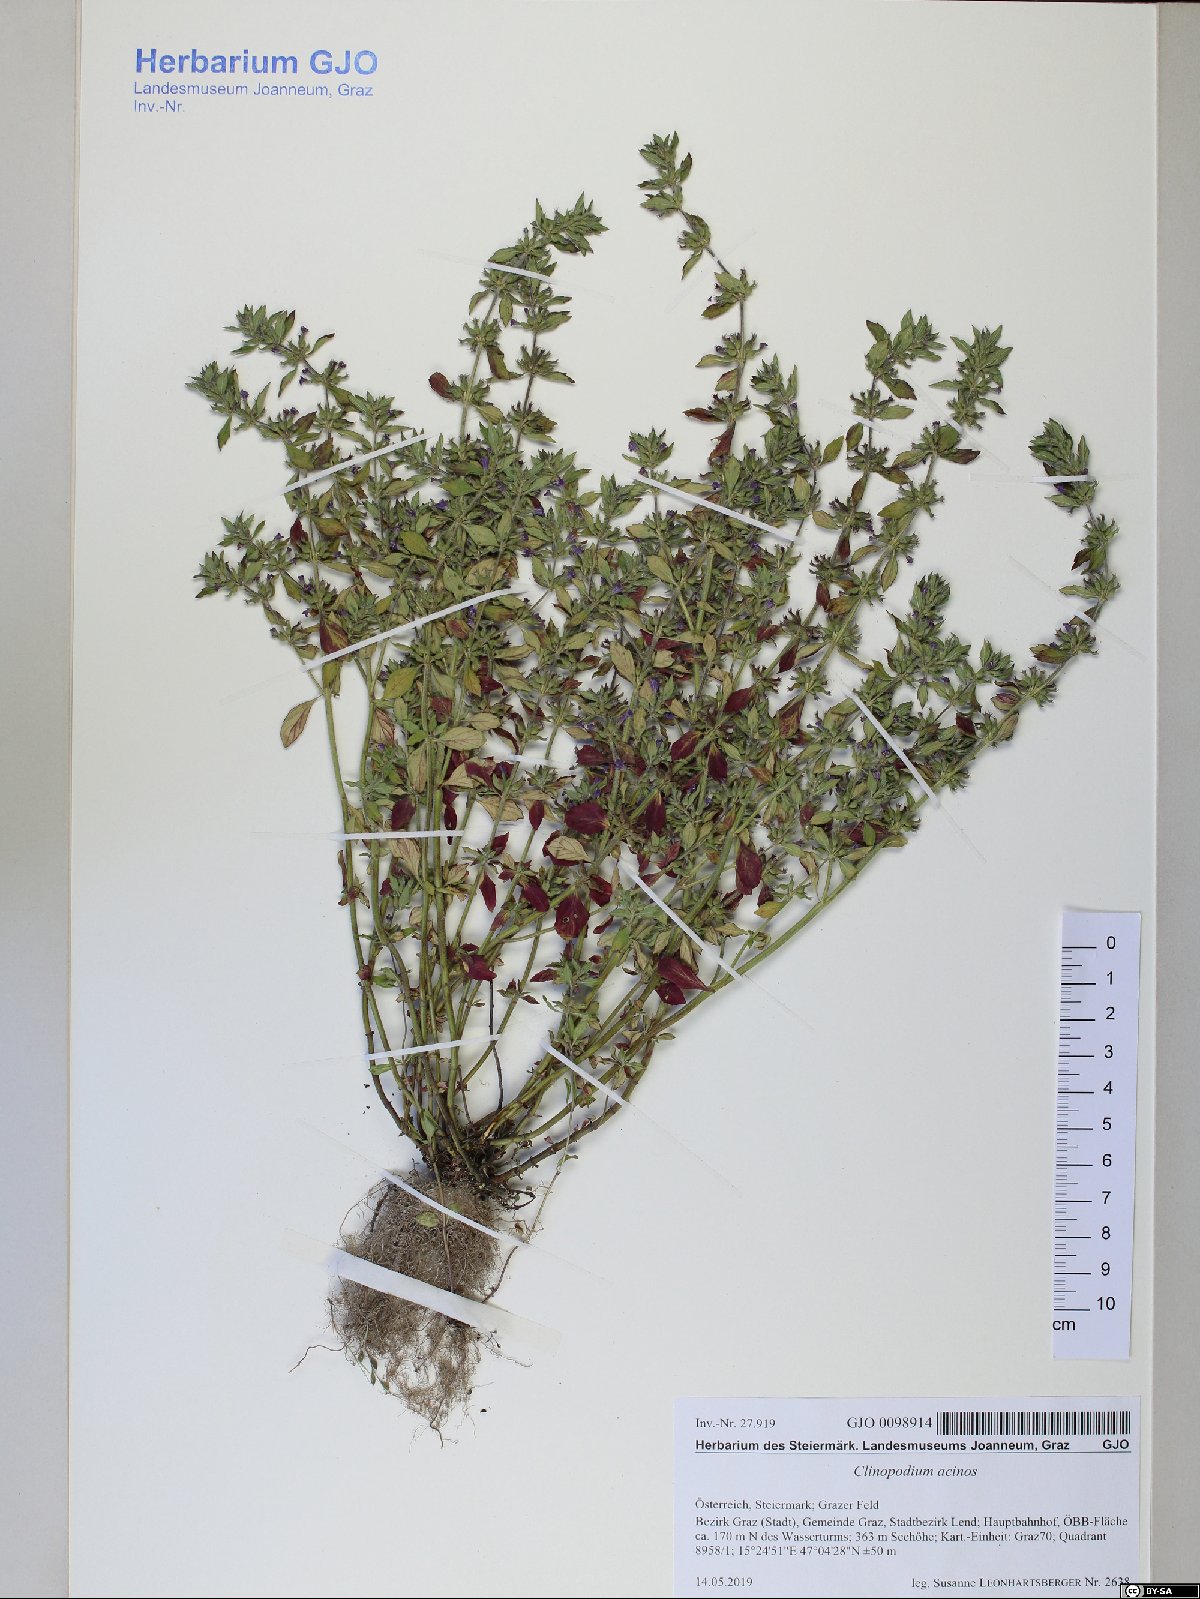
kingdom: Plantae
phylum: Tracheophyta
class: Magnoliopsida
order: Lamiales
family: Lamiaceae
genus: Clinopodium
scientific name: Clinopodium acinos
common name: Basil thyme
